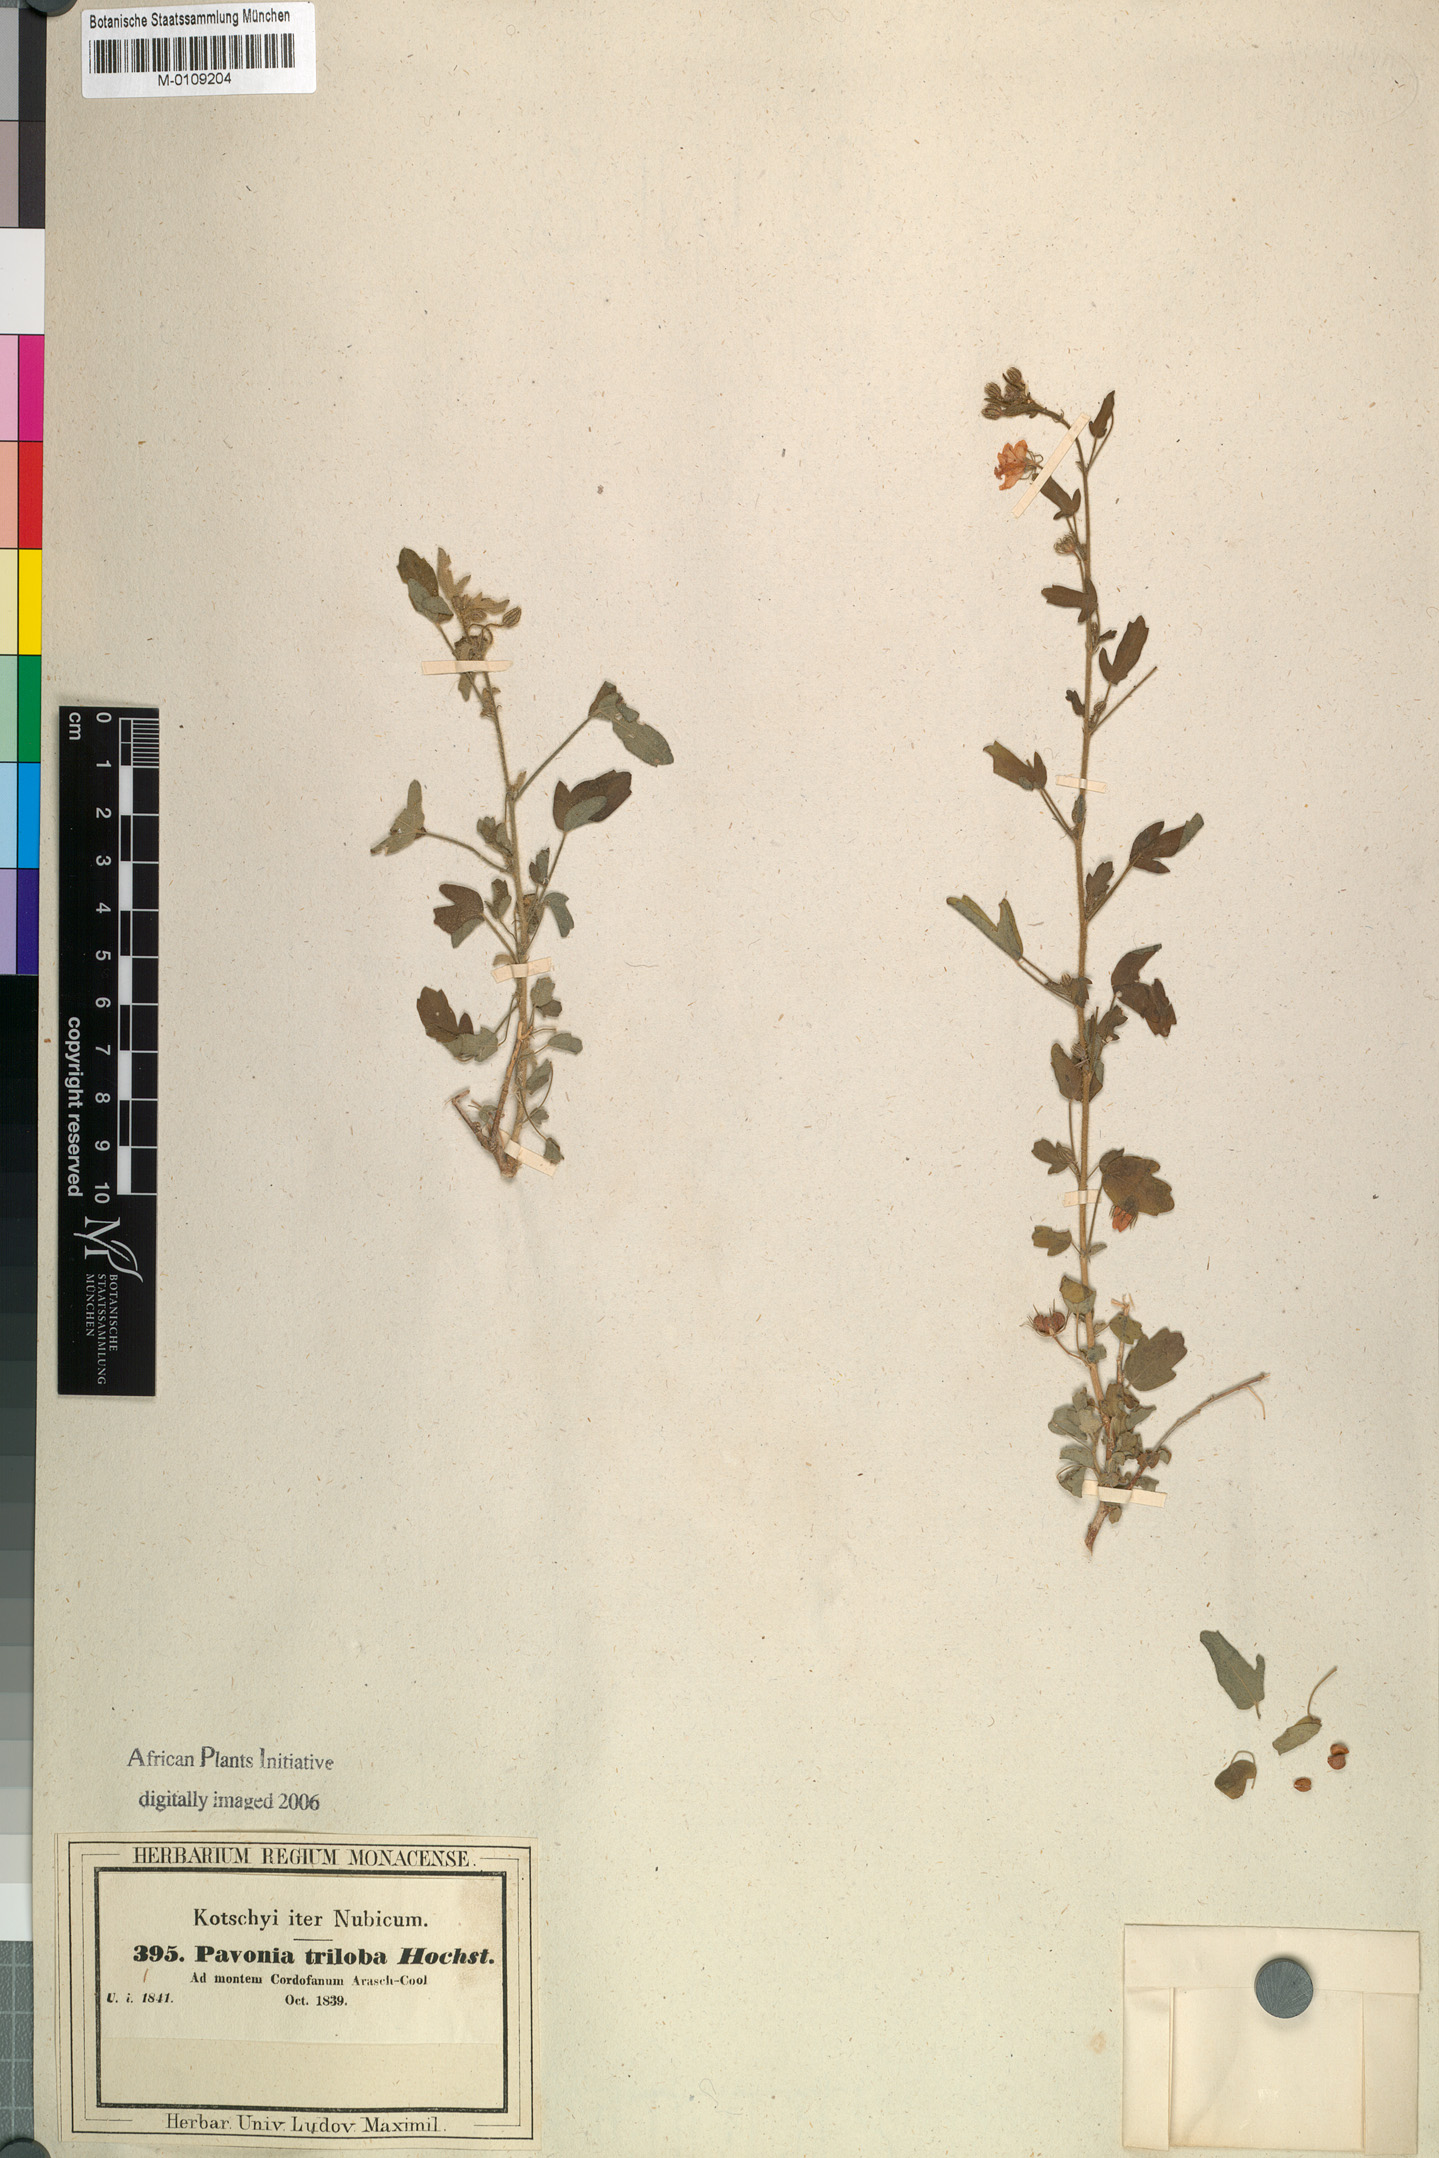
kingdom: Plantae
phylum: Tracheophyta
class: Magnoliopsida
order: Malvales
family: Malvaceae
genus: Pavonia
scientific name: Pavonia triloba
